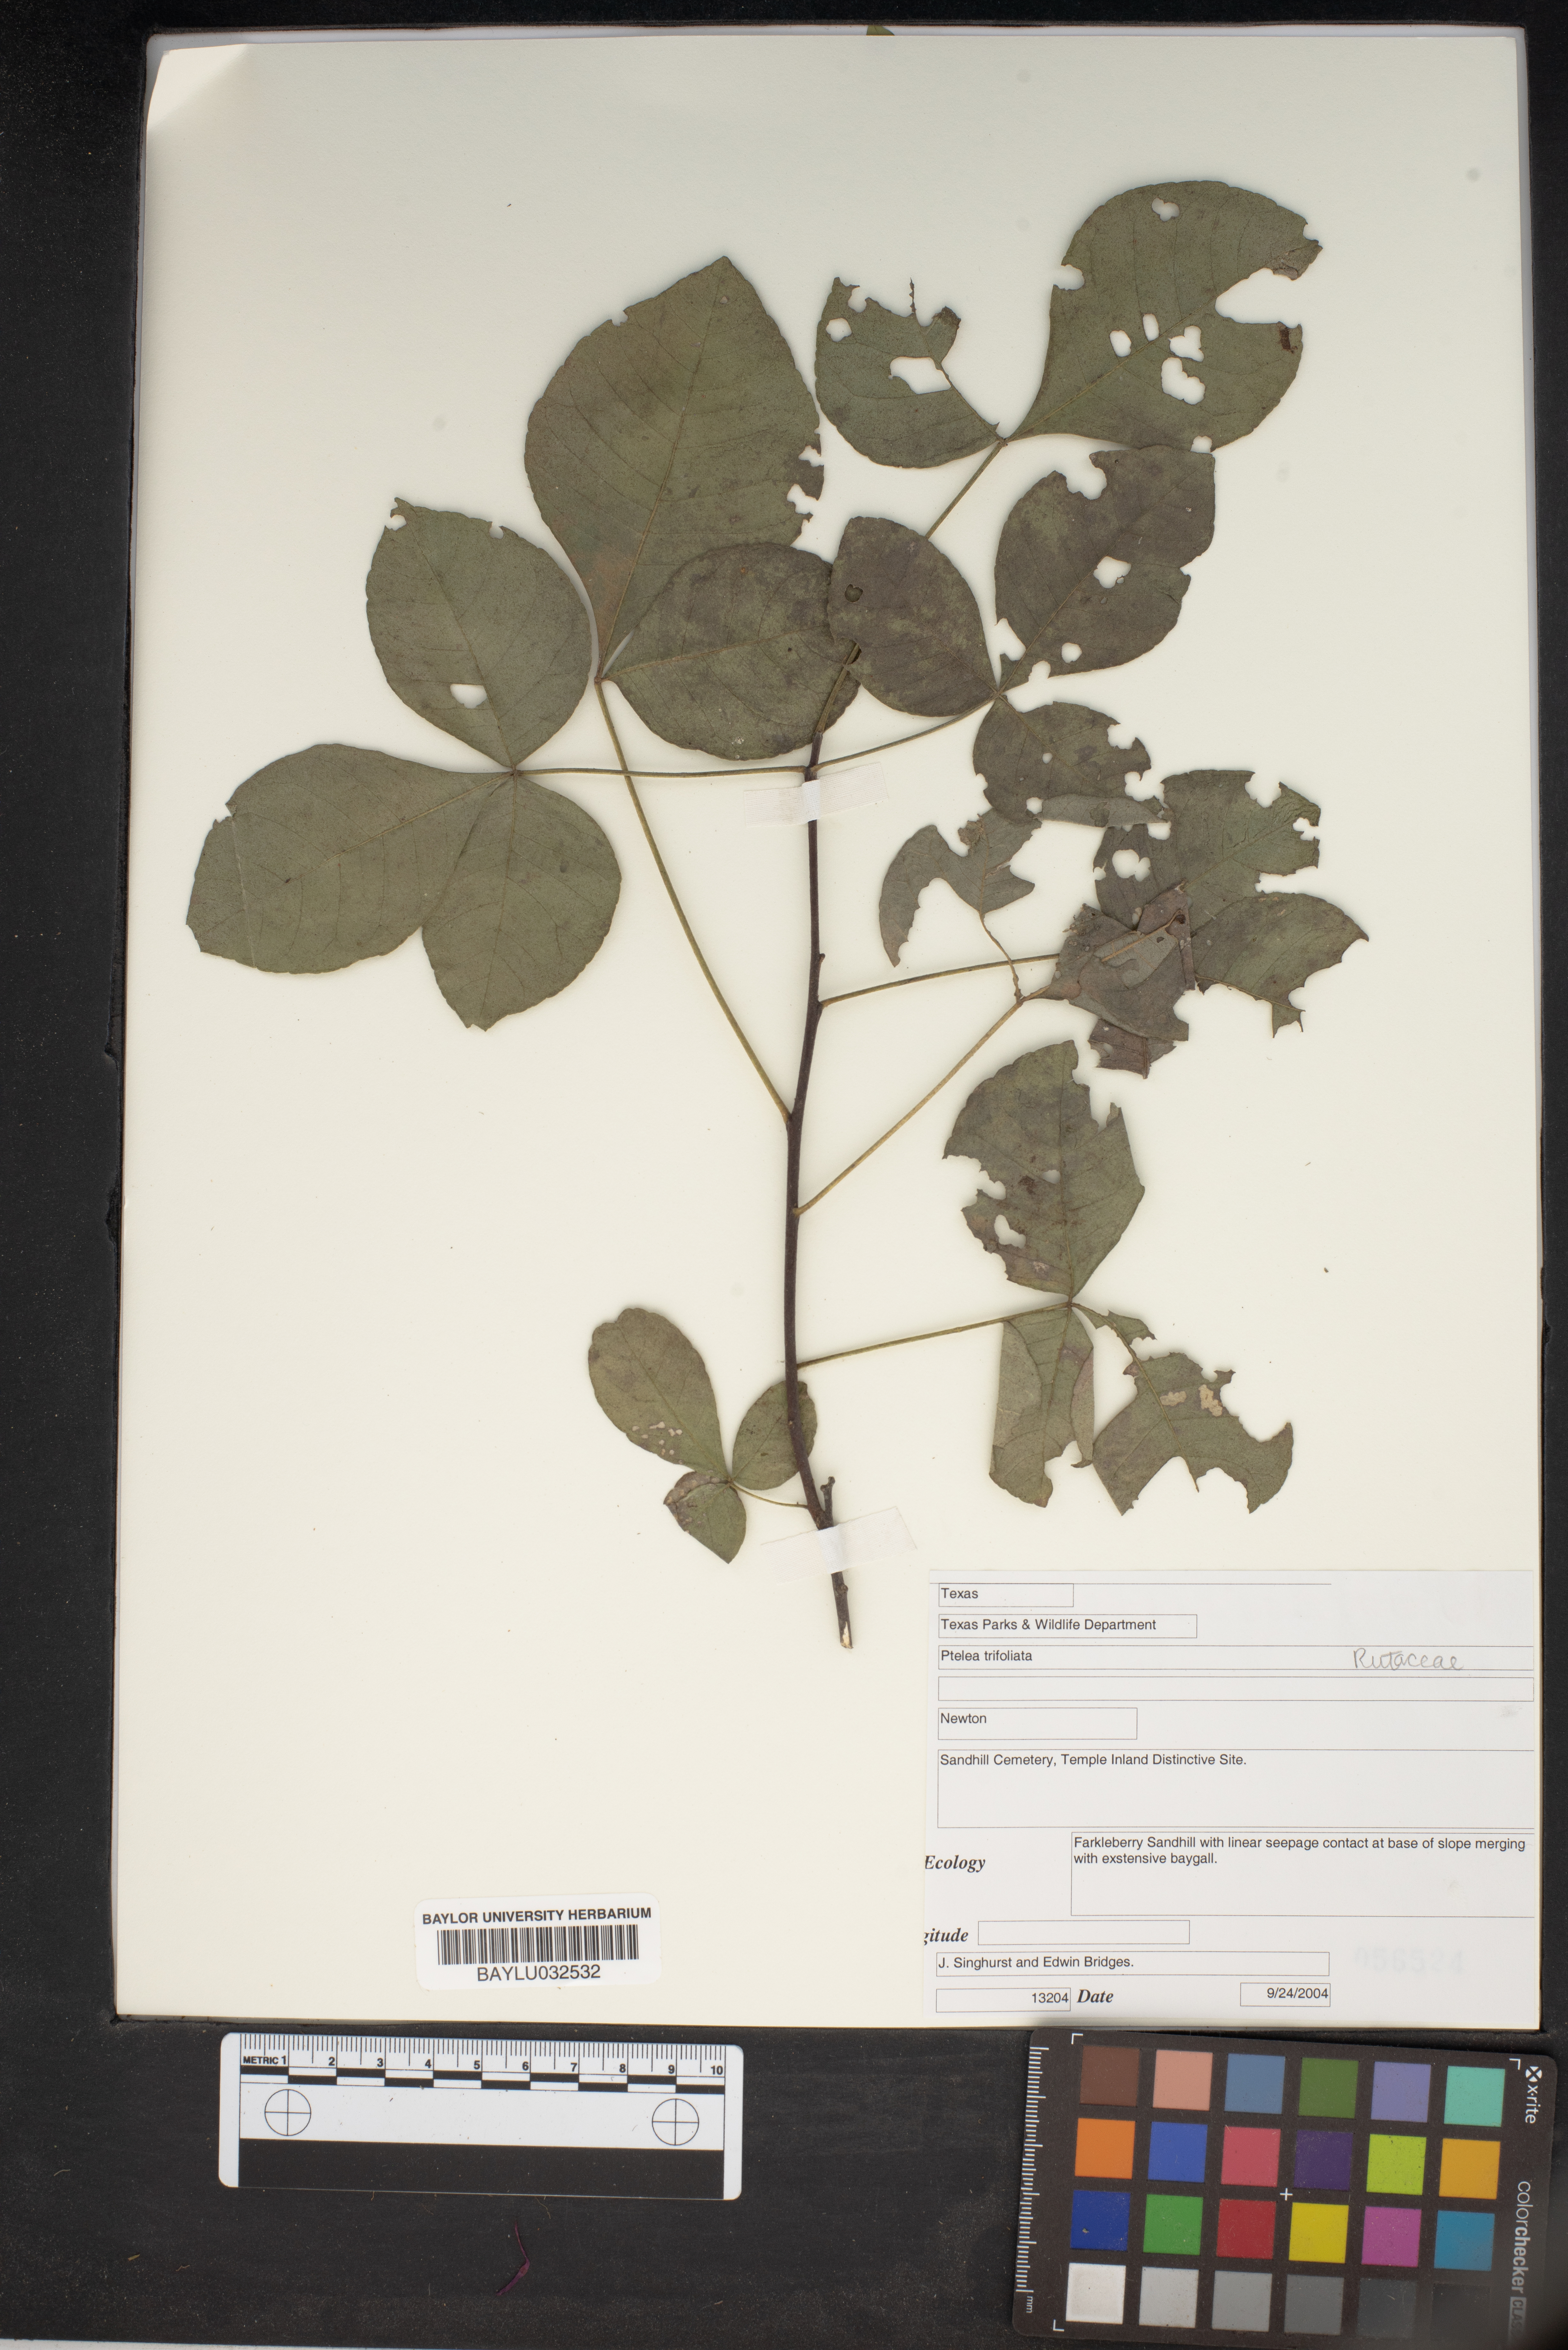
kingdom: Plantae
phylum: Tracheophyta
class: Magnoliopsida
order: Sapindales
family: Rutaceae
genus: Ptelea
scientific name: Ptelea trifoliata
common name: Common hop-tree
